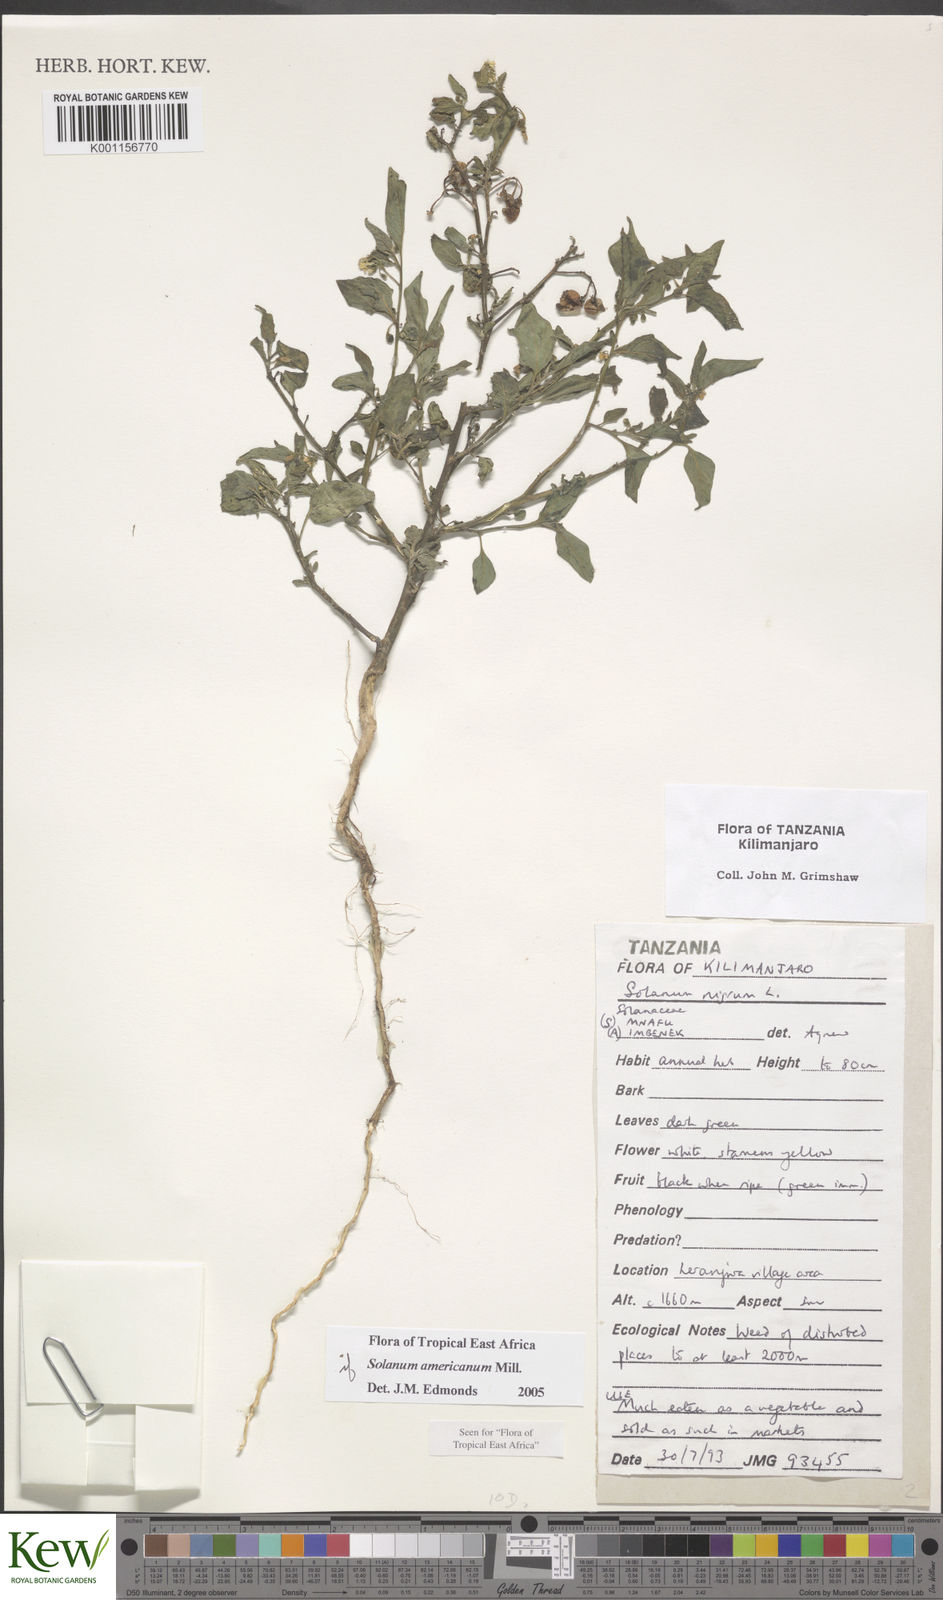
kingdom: Plantae
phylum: Tracheophyta
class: Magnoliopsida
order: Solanales
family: Solanaceae
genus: Solanum
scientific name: Solanum americanum
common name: American black nightshade
